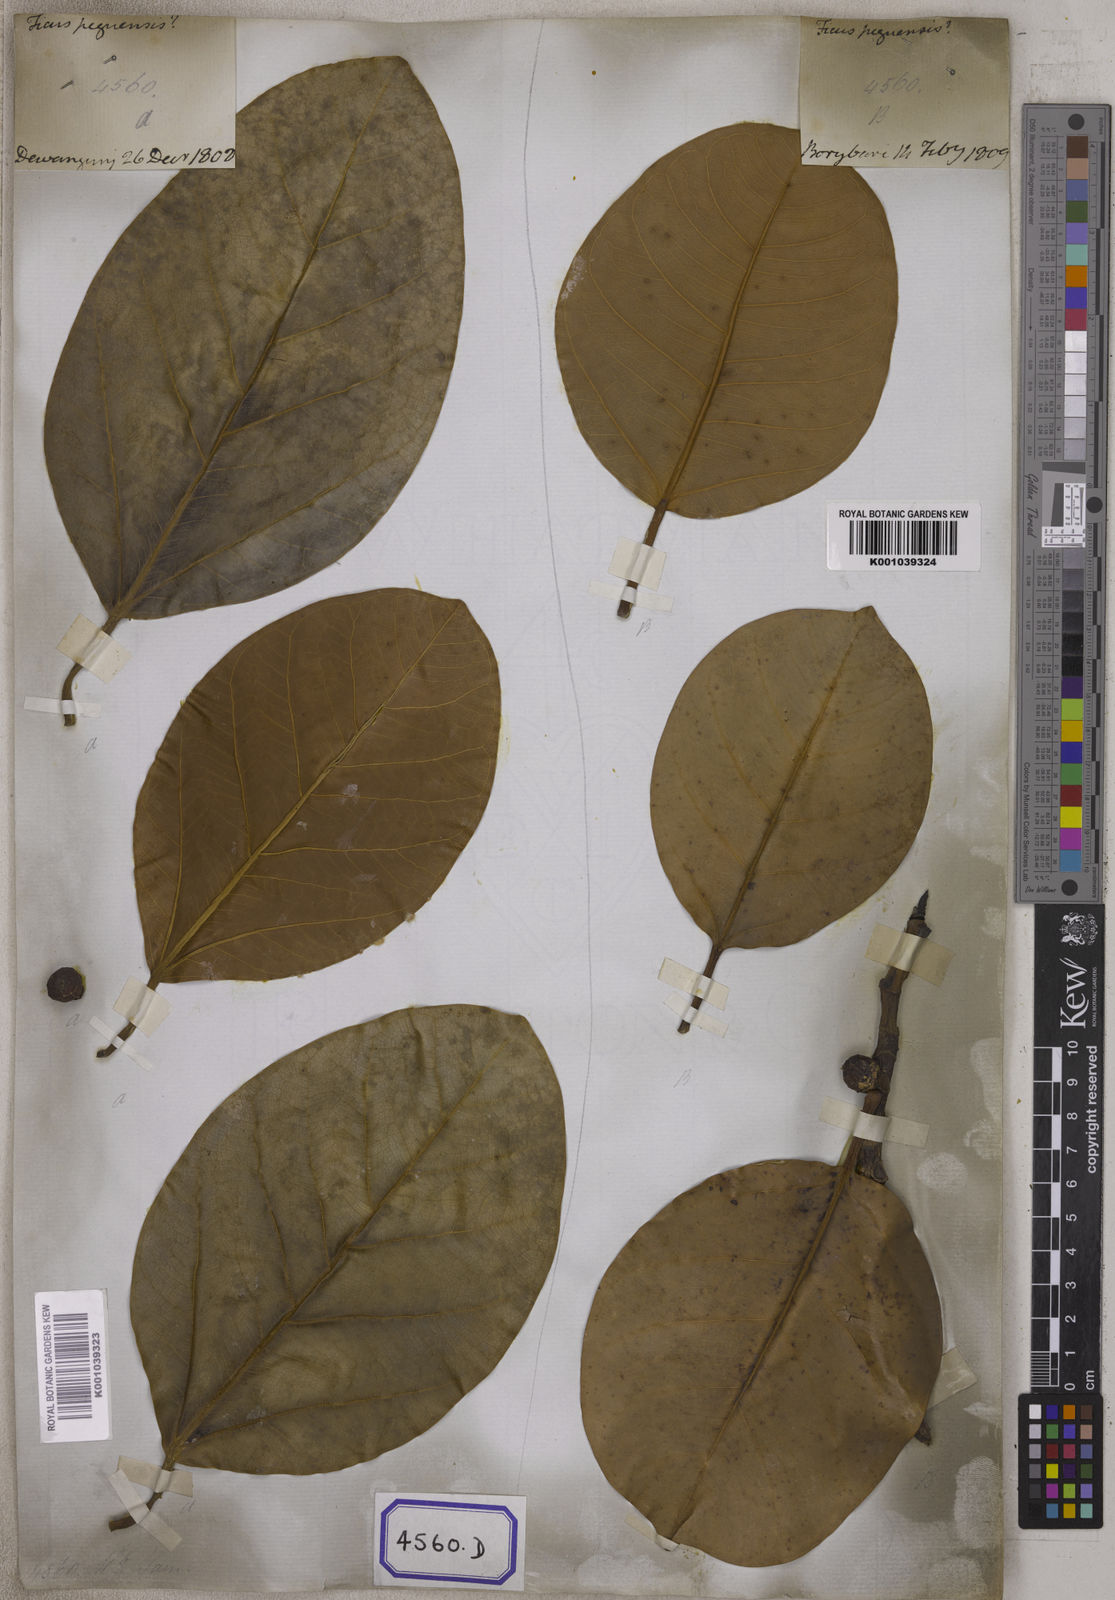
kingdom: Plantae
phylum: Tracheophyta
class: Magnoliopsida
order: Rosales
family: Moraceae
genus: Ficus
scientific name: Ficus
